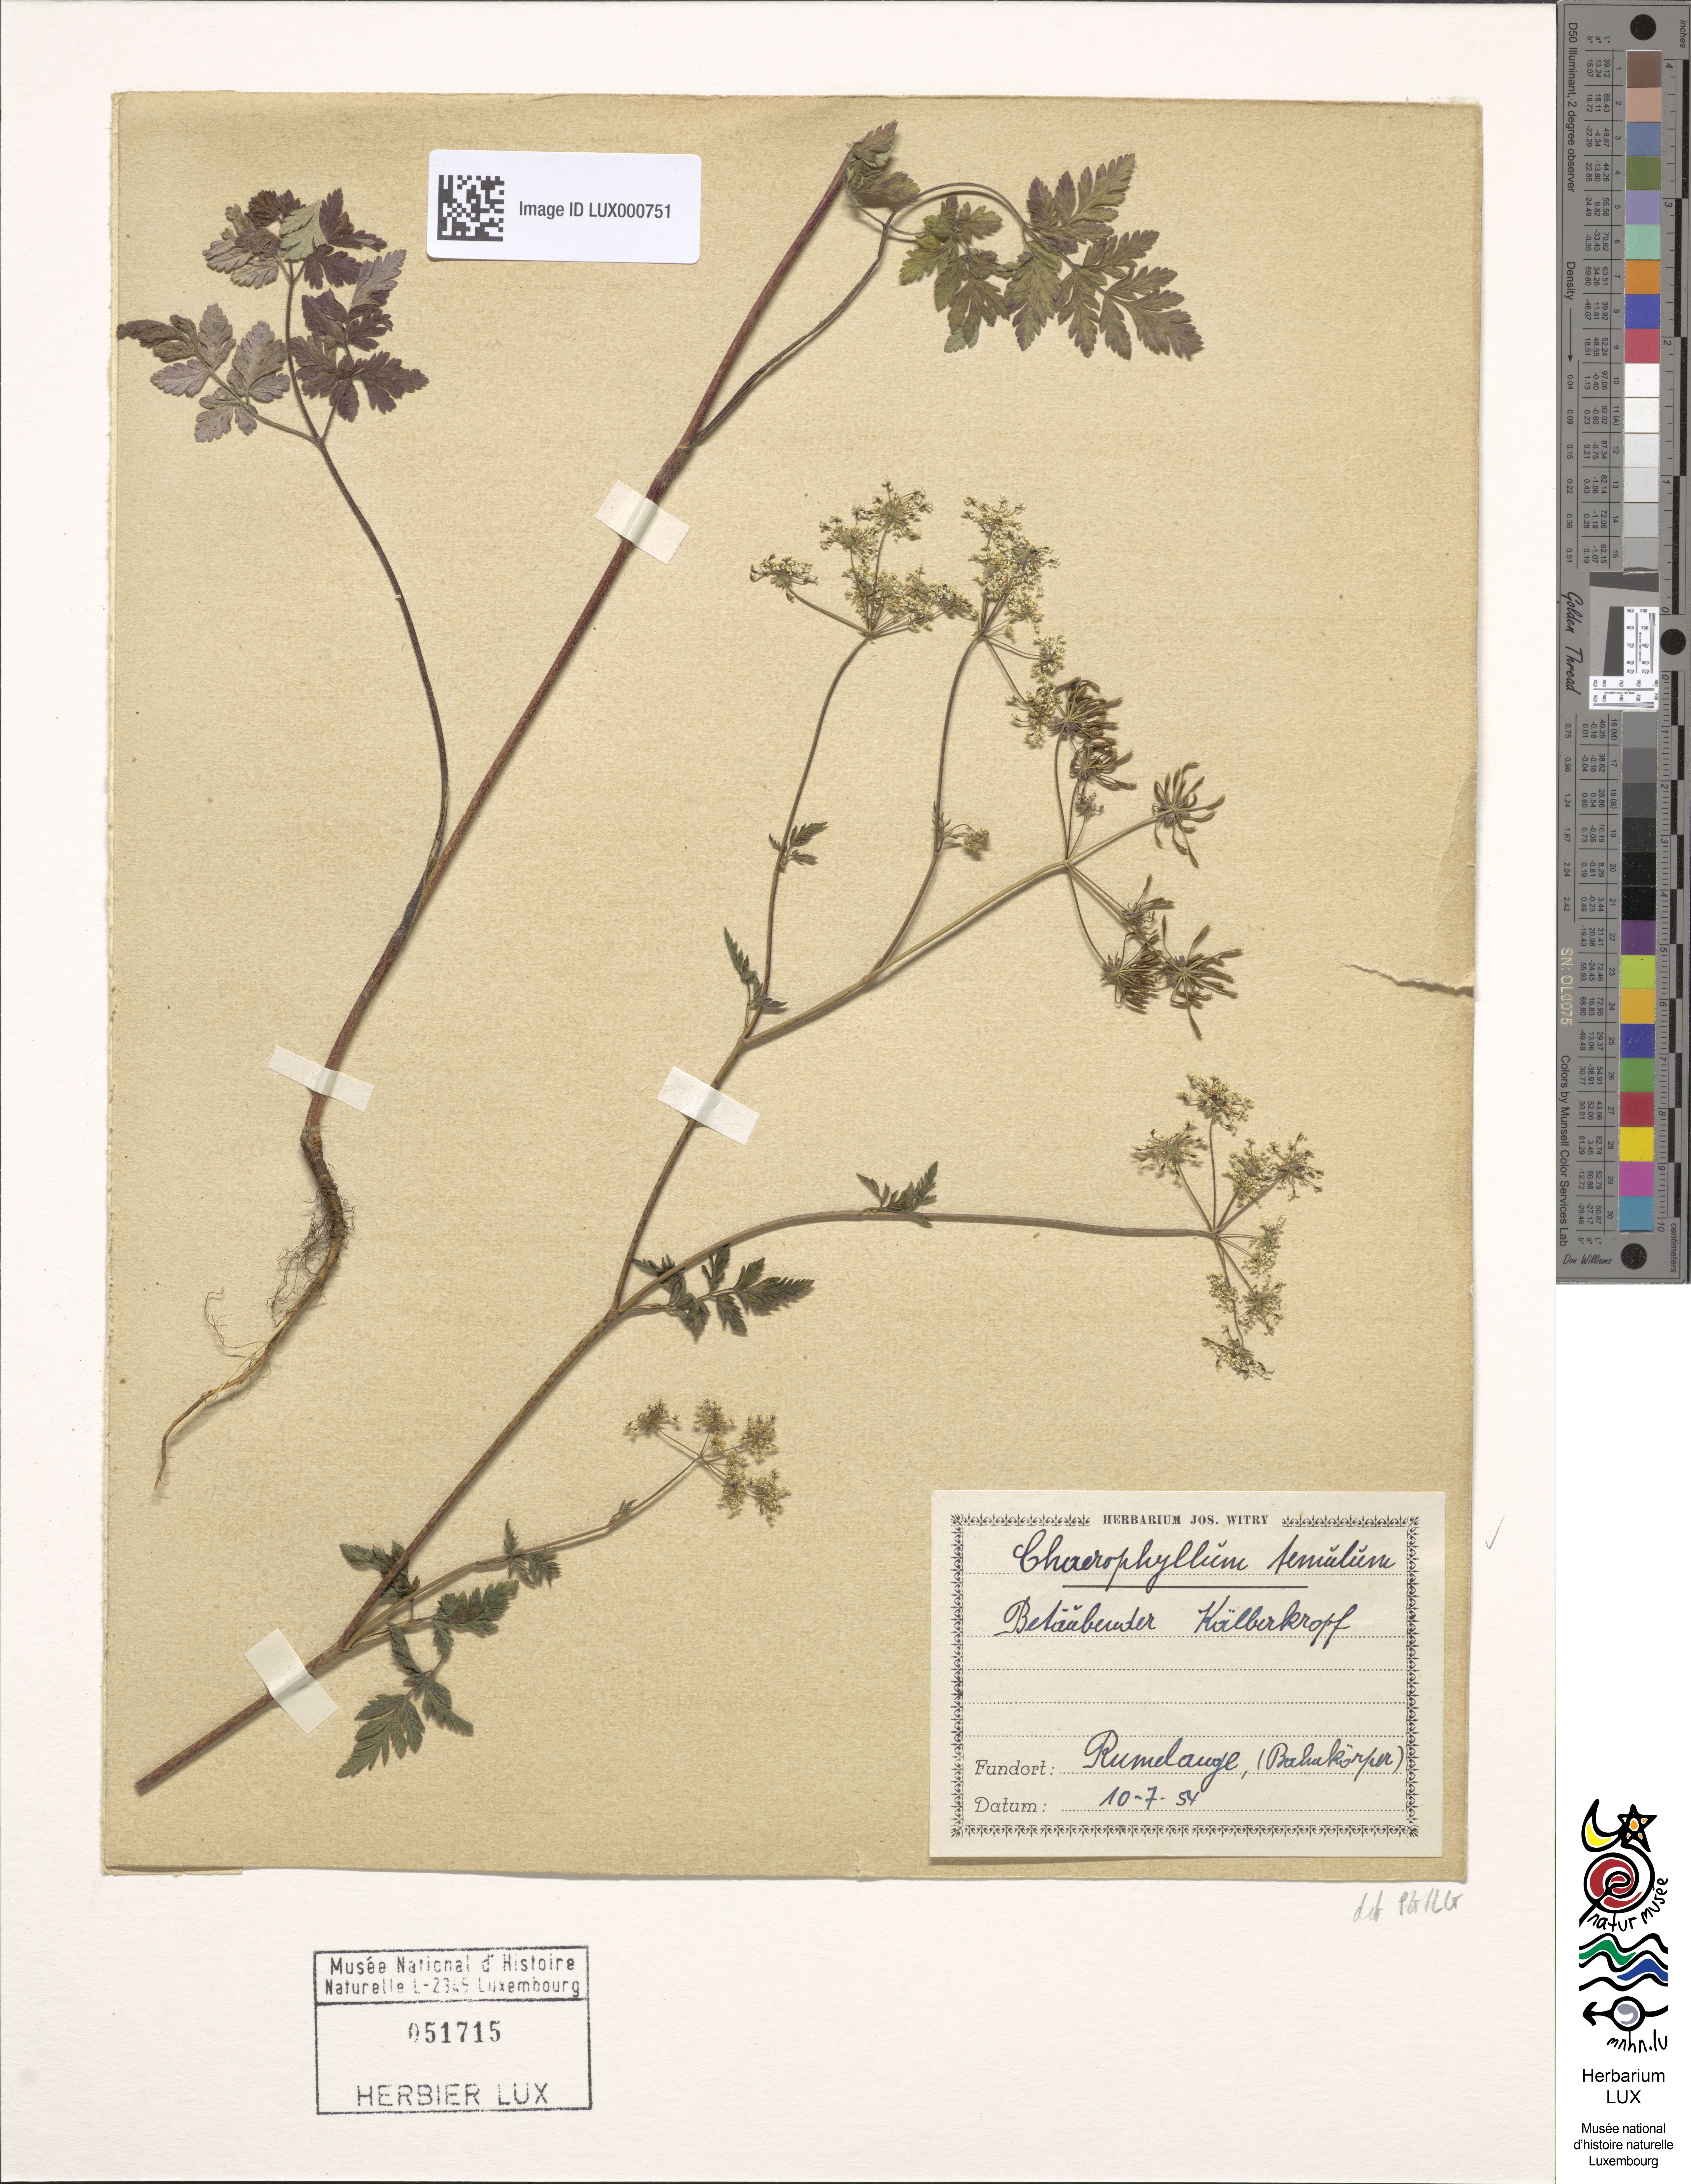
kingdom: Plantae
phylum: Tracheophyta
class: Magnoliopsida
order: Apiales
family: Apiaceae
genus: Chaerophyllum
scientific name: Chaerophyllum temulum
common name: Rough chervil
